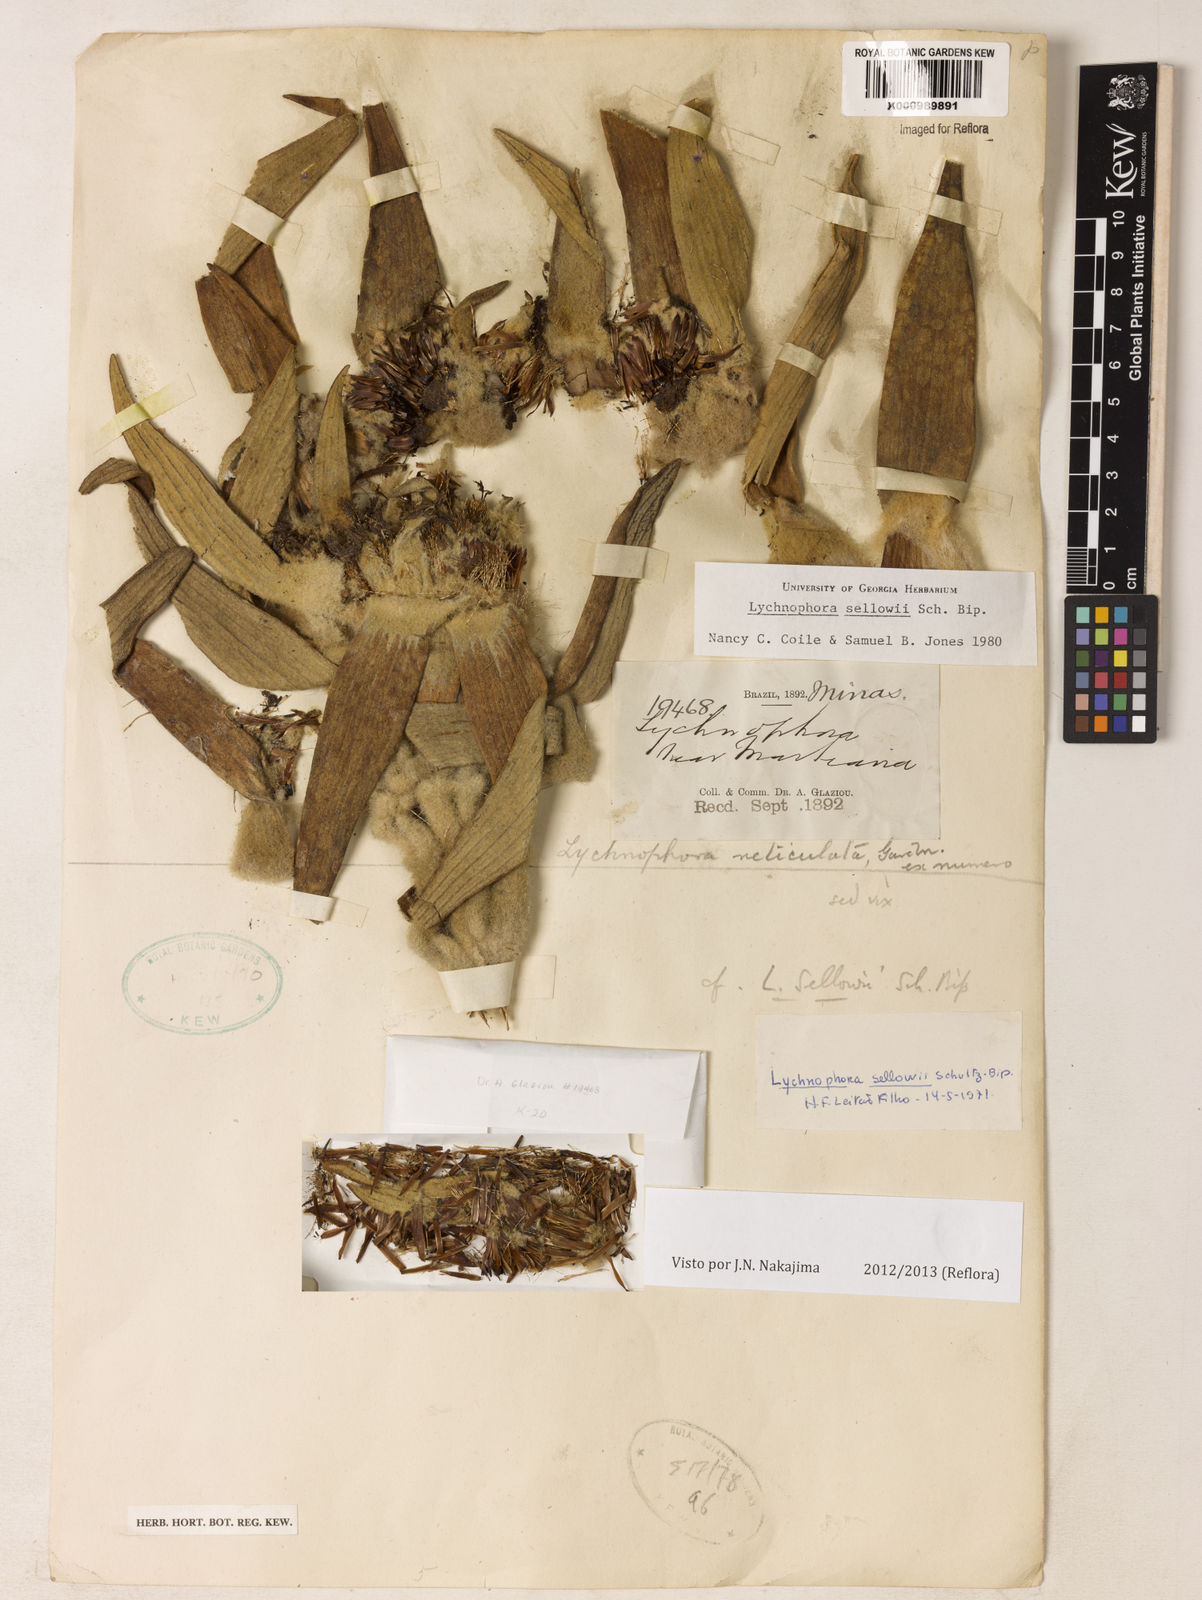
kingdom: Plantae
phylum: Tracheophyta
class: Magnoliopsida
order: Asterales
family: Asteraceae
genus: Lychnophora
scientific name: Lychnophora
